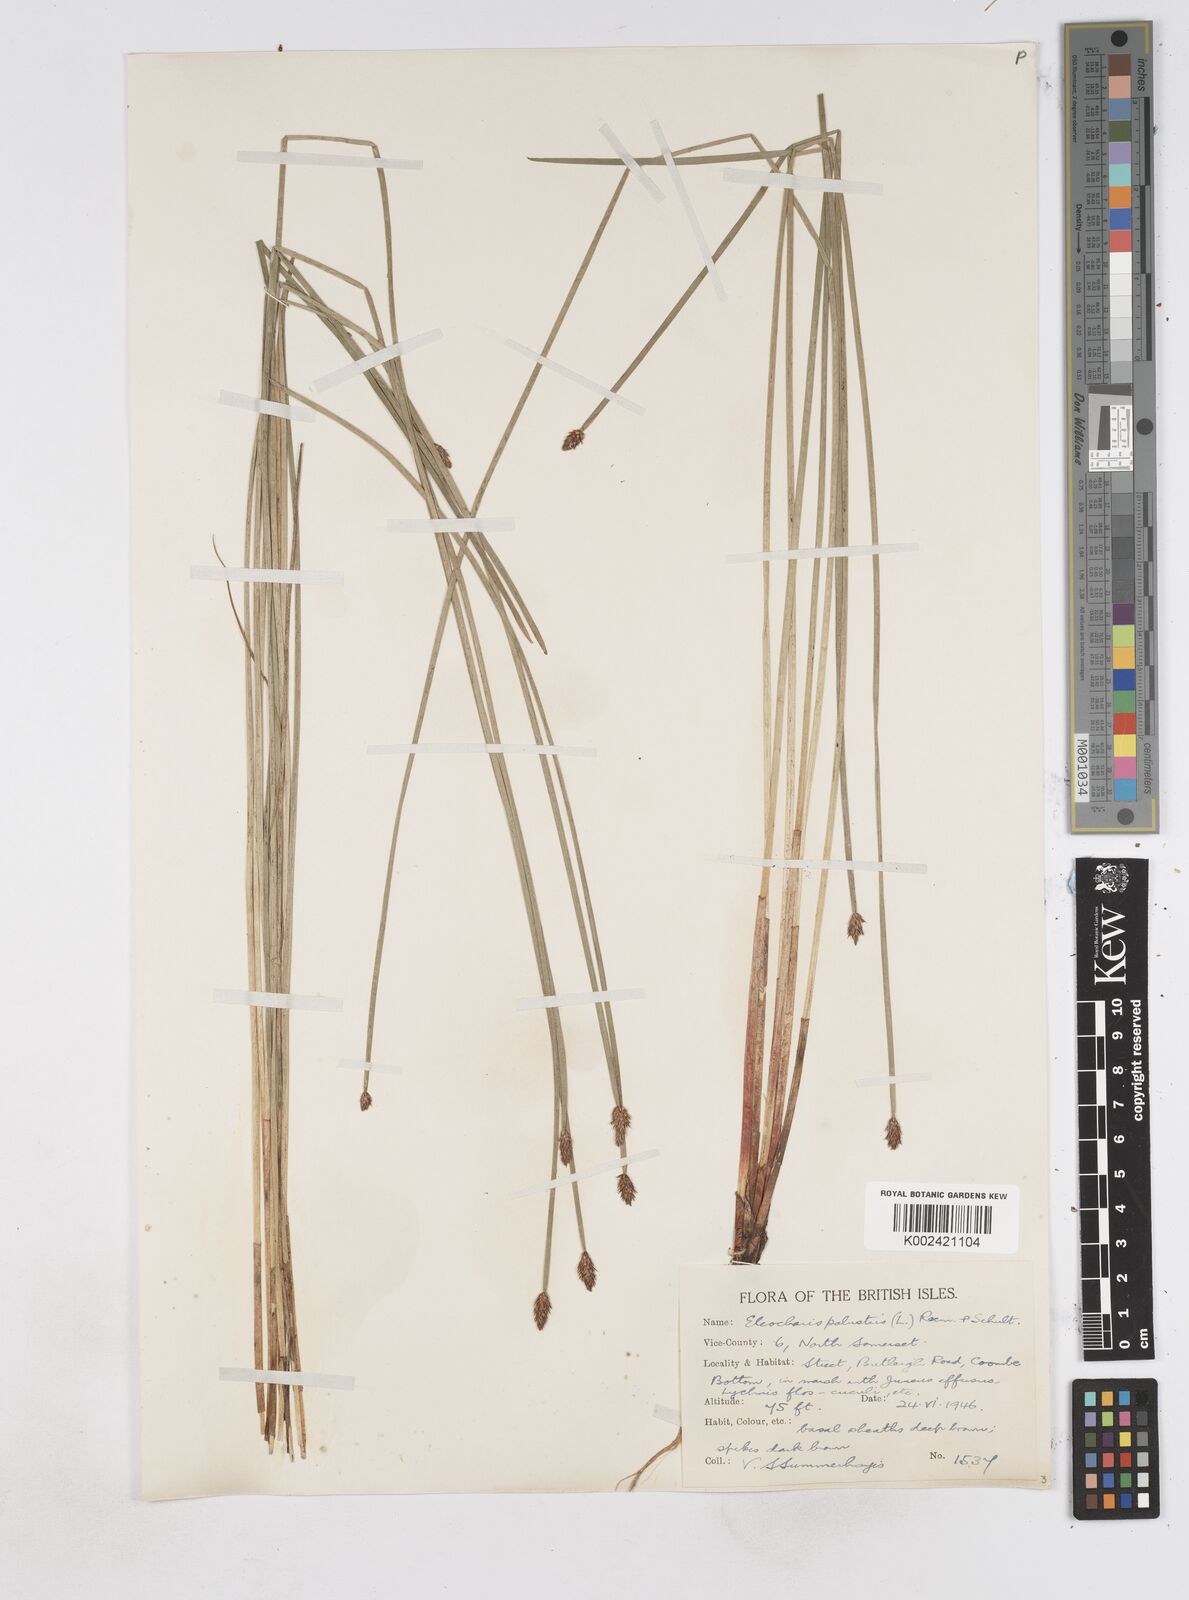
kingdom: Plantae
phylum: Tracheophyta
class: Liliopsida
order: Poales
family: Cyperaceae
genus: Eleocharis
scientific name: Eleocharis palustris
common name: Common spike-rush
